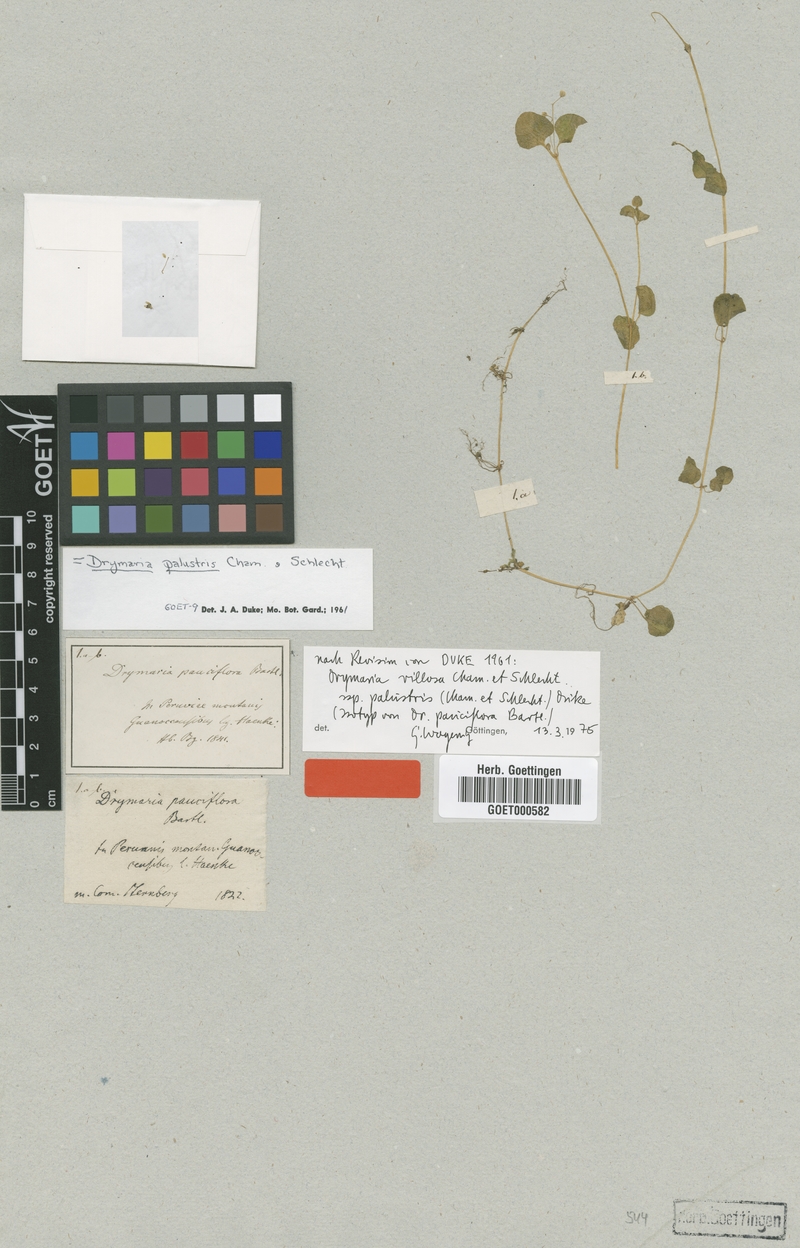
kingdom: Plantae
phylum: Tracheophyta
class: Magnoliopsida
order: Caryophyllales
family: Caryophyllaceae
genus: Drymaria
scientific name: Drymaria villosa
